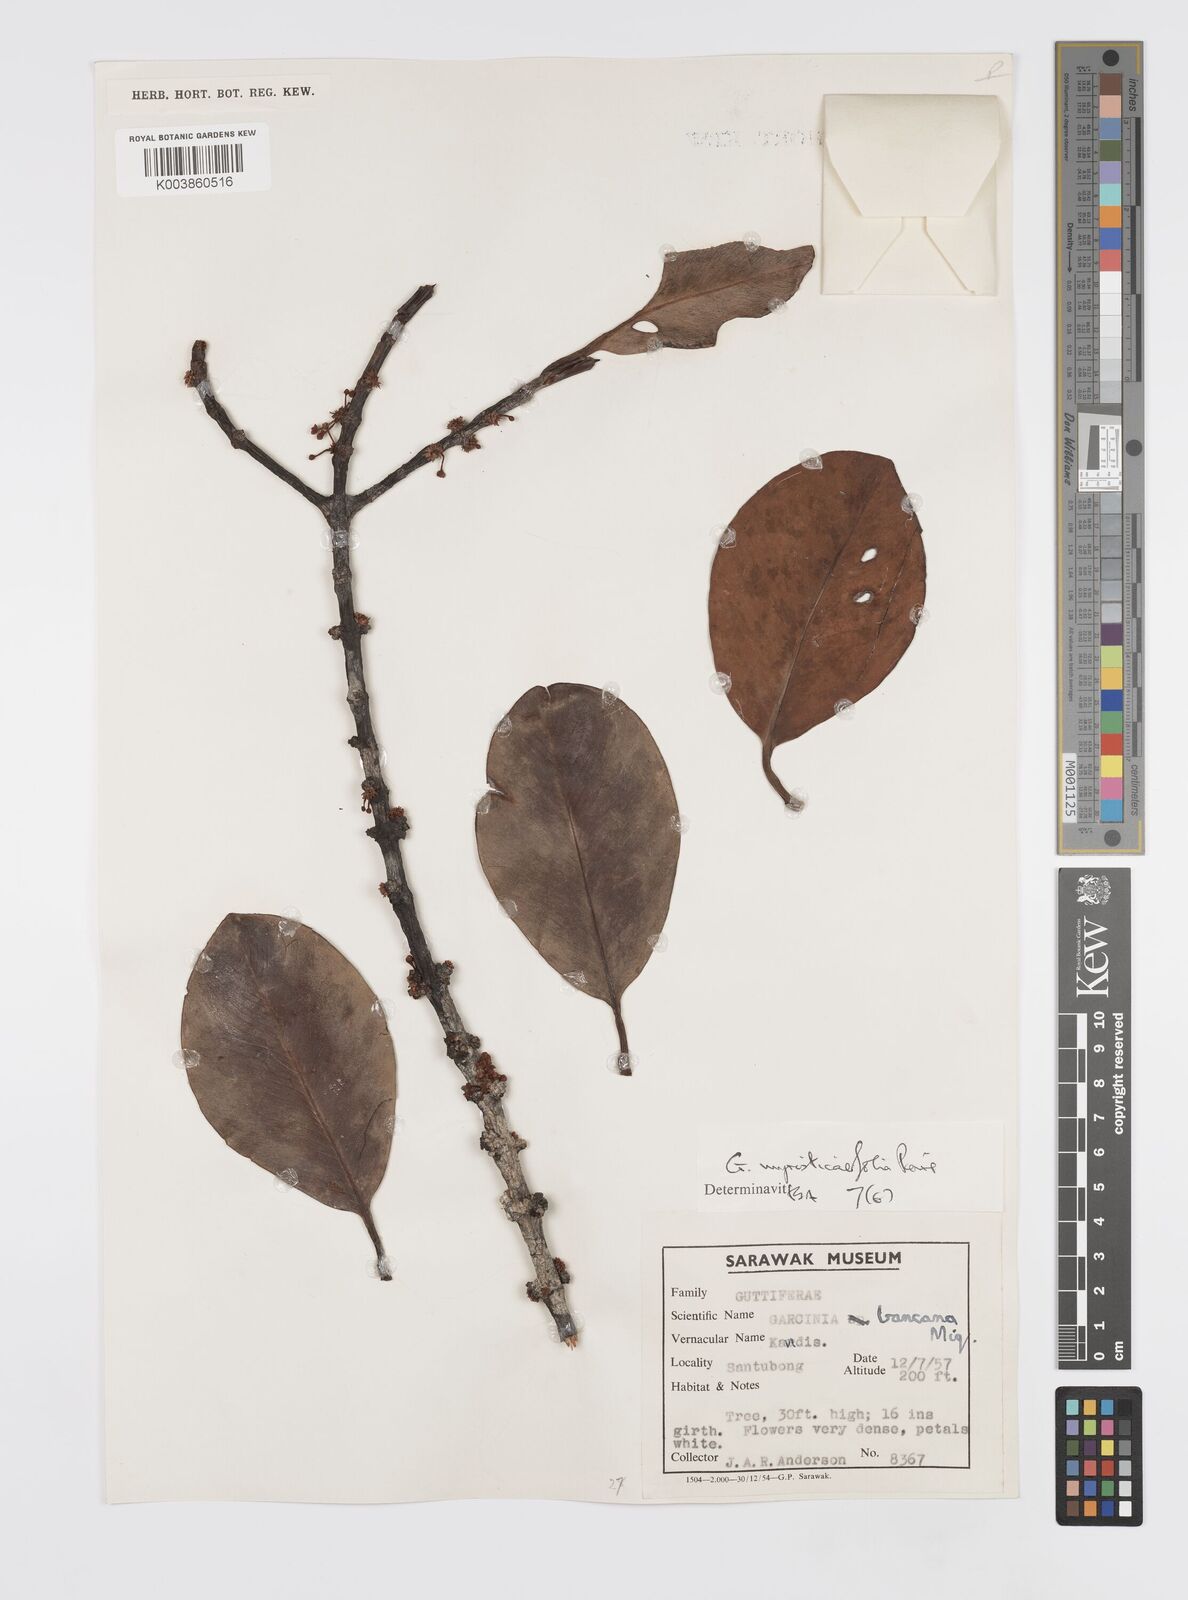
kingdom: Plantae
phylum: Tracheophyta
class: Magnoliopsida
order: Malpighiales
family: Clusiaceae
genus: Garcinia
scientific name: Garcinia myristicifolia
